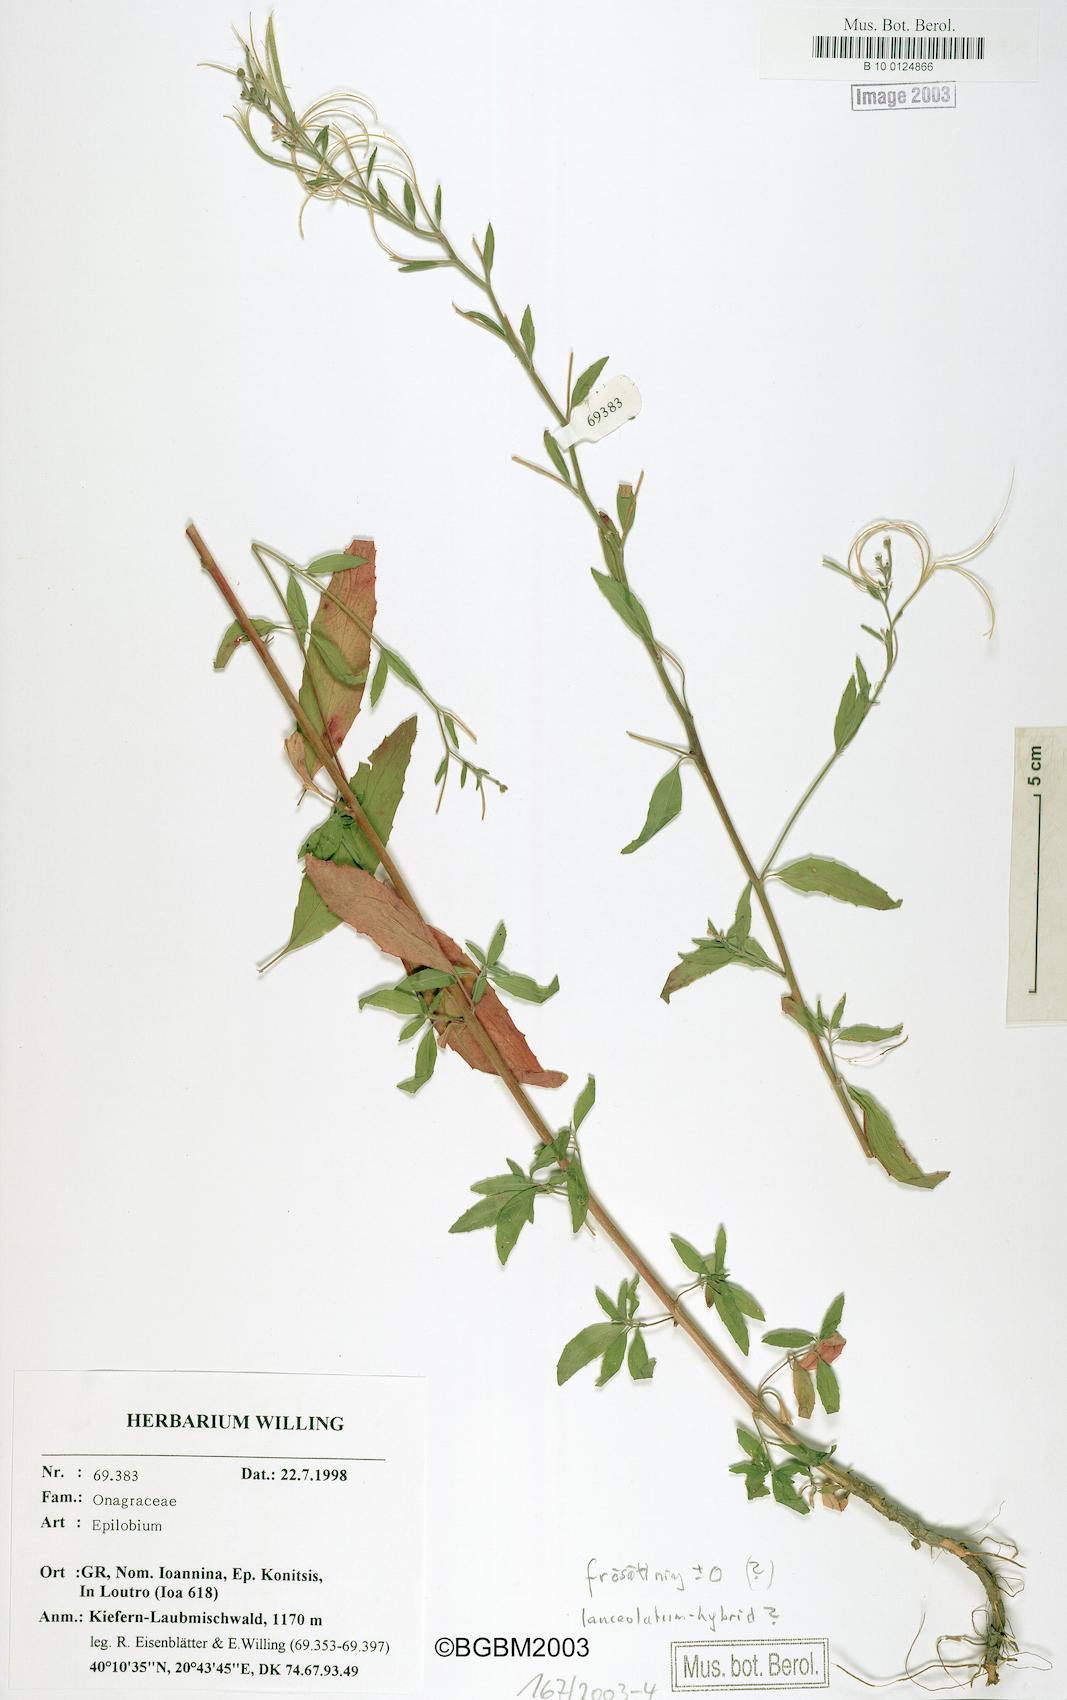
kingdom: Plantae
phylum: Tracheophyta
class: Magnoliopsida
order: Myrtales
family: Onagraceae
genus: Epilobium
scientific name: Epilobium
